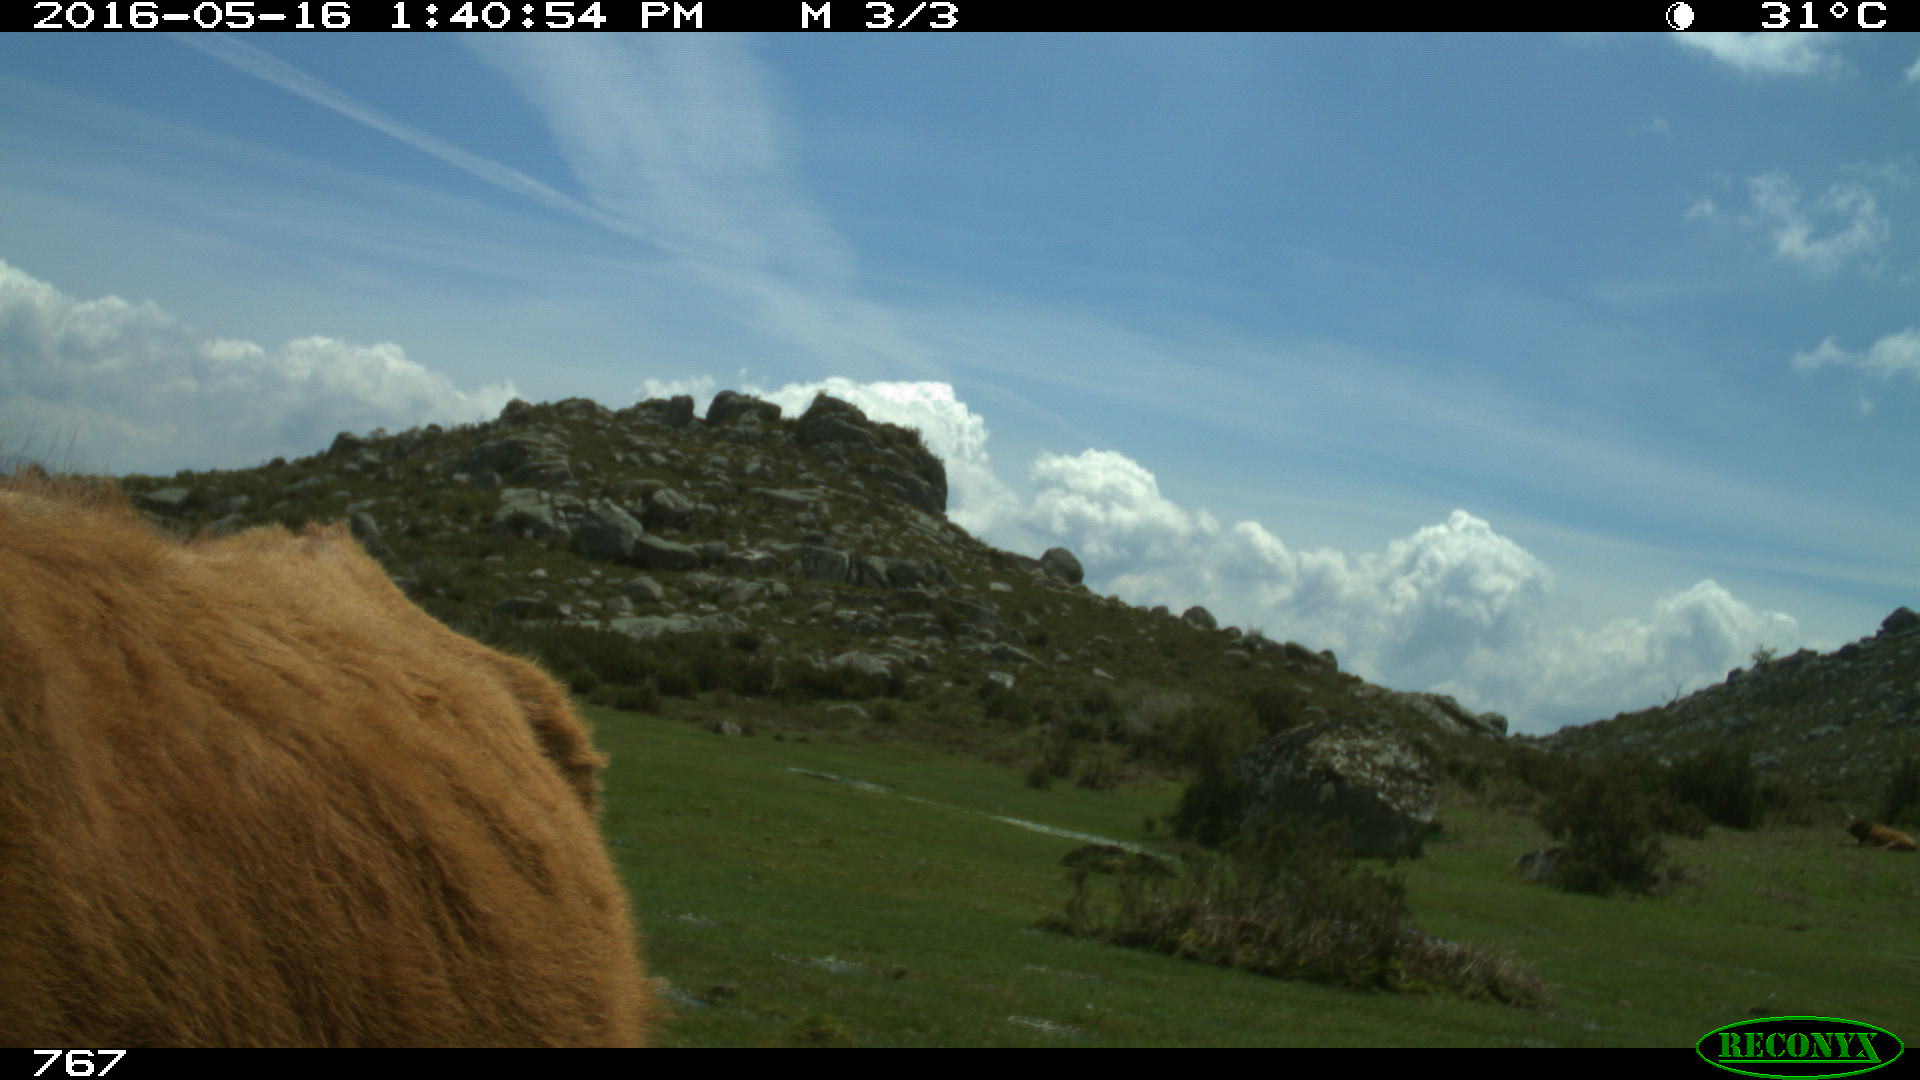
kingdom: Animalia
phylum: Chordata
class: Mammalia
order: Artiodactyla
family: Bovidae
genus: Bos
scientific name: Bos taurus
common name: Domesticated cattle
